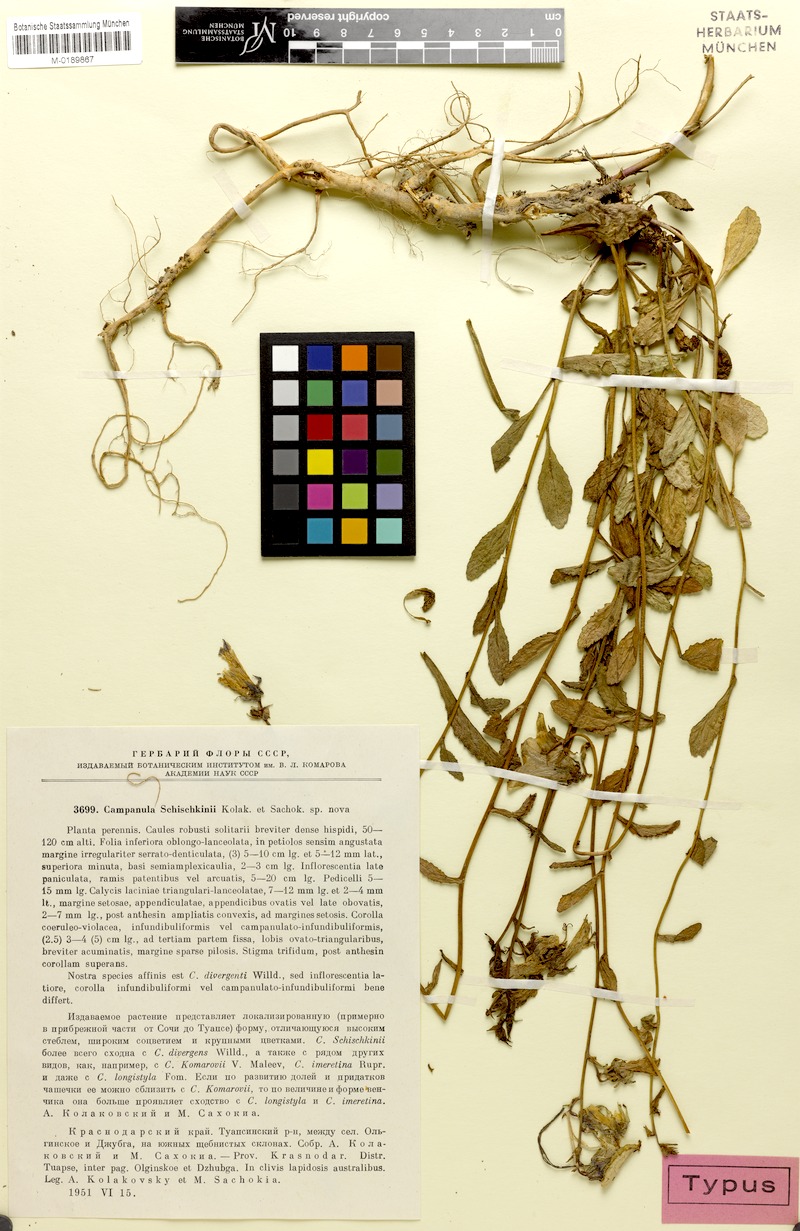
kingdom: Plantae
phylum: Tracheophyta
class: Magnoliopsida
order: Asterales
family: Campanulaceae
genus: Campanula
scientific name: Campanula longistyla
